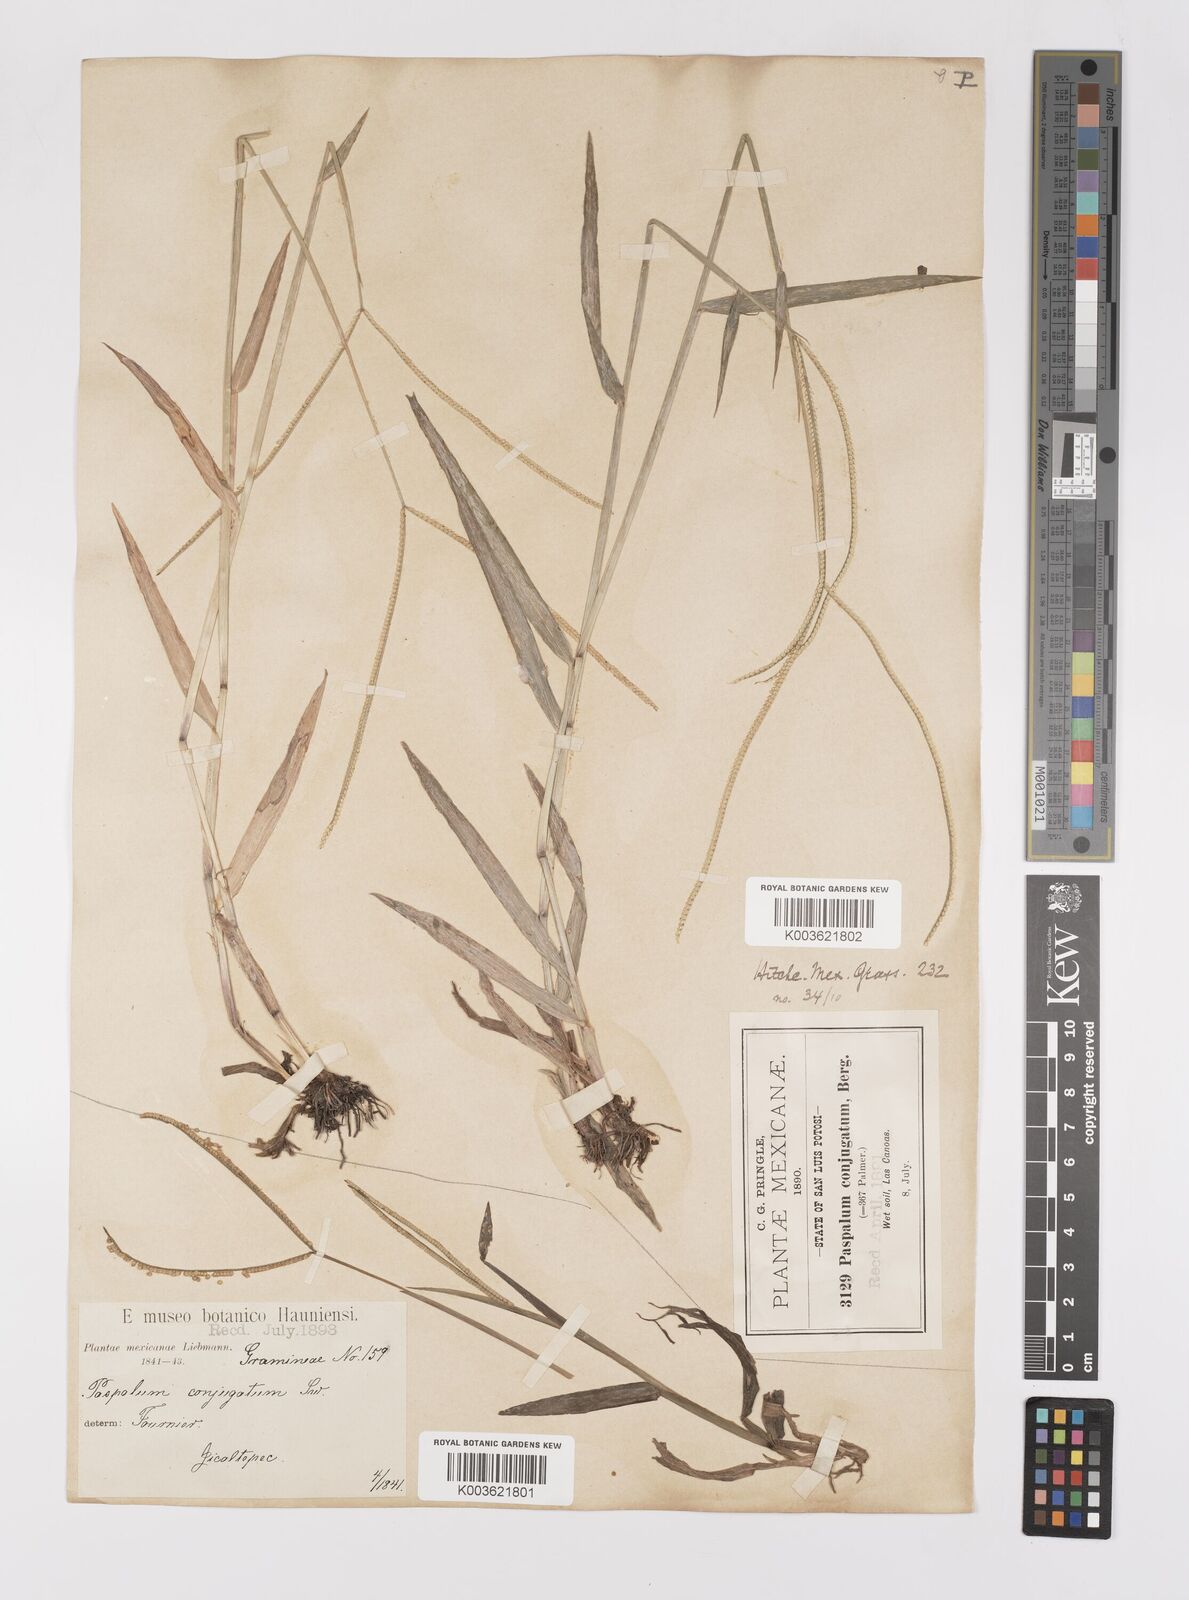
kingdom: Plantae
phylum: Tracheophyta
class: Liliopsida
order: Poales
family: Poaceae
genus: Paspalum
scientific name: Paspalum conjugatum
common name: Hilograss
